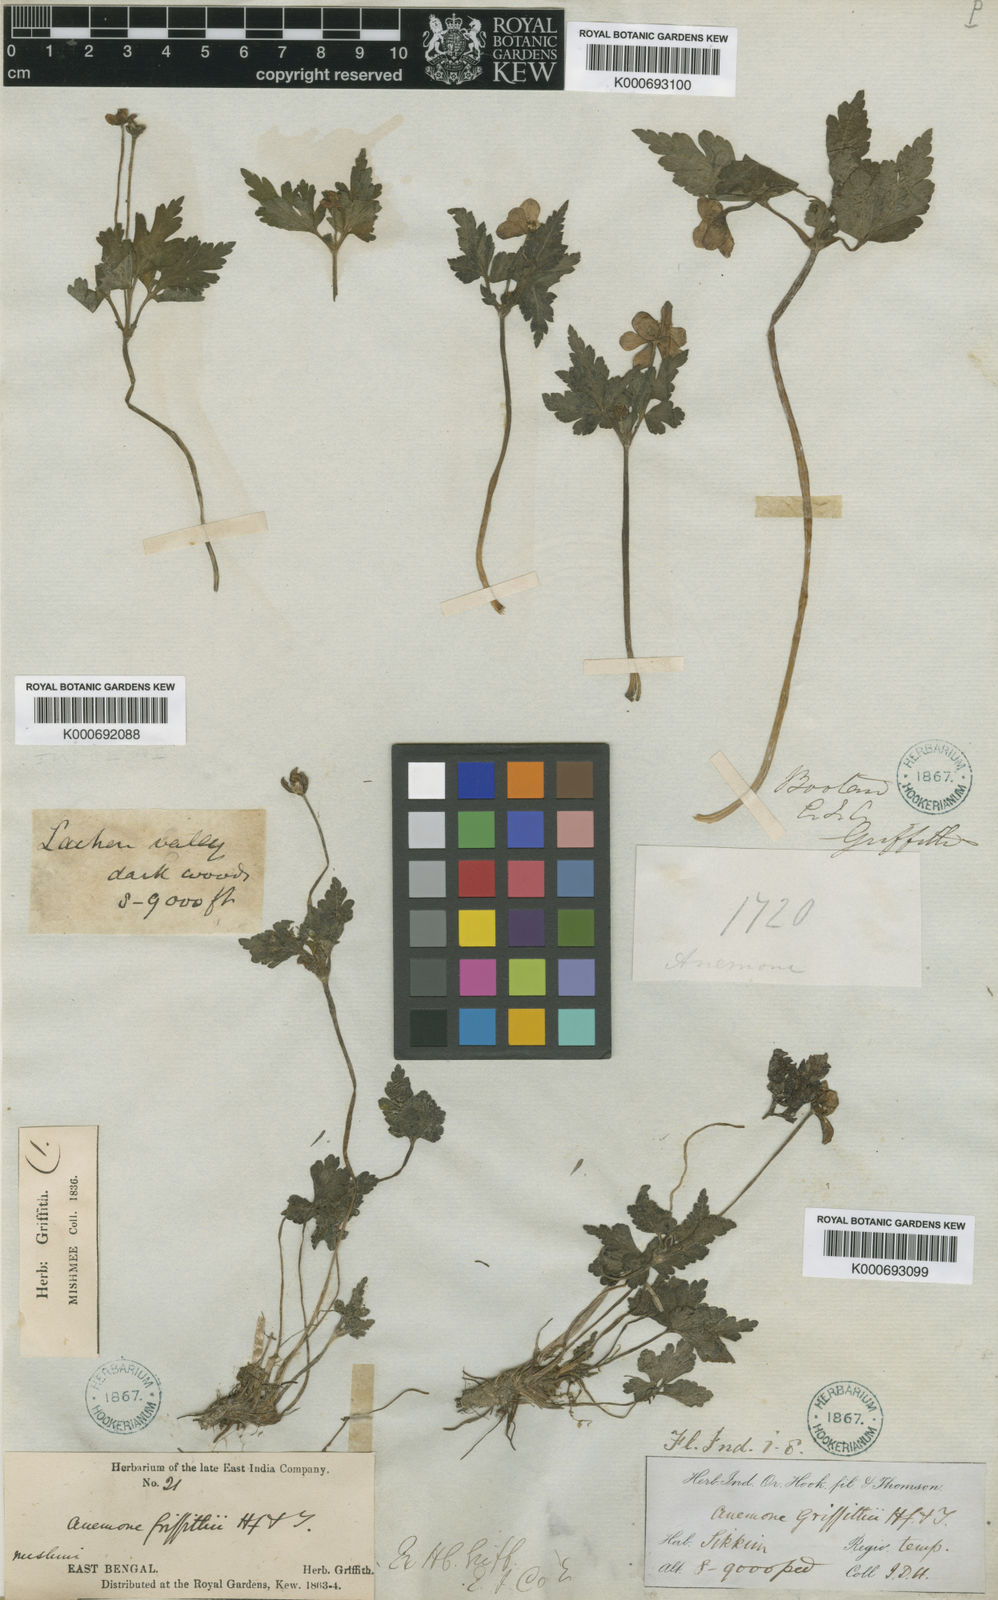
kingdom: Plantae
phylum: Tracheophyta
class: Magnoliopsida
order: Ranunculales
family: Ranunculaceae
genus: Anemone
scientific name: Anemone griffithii
